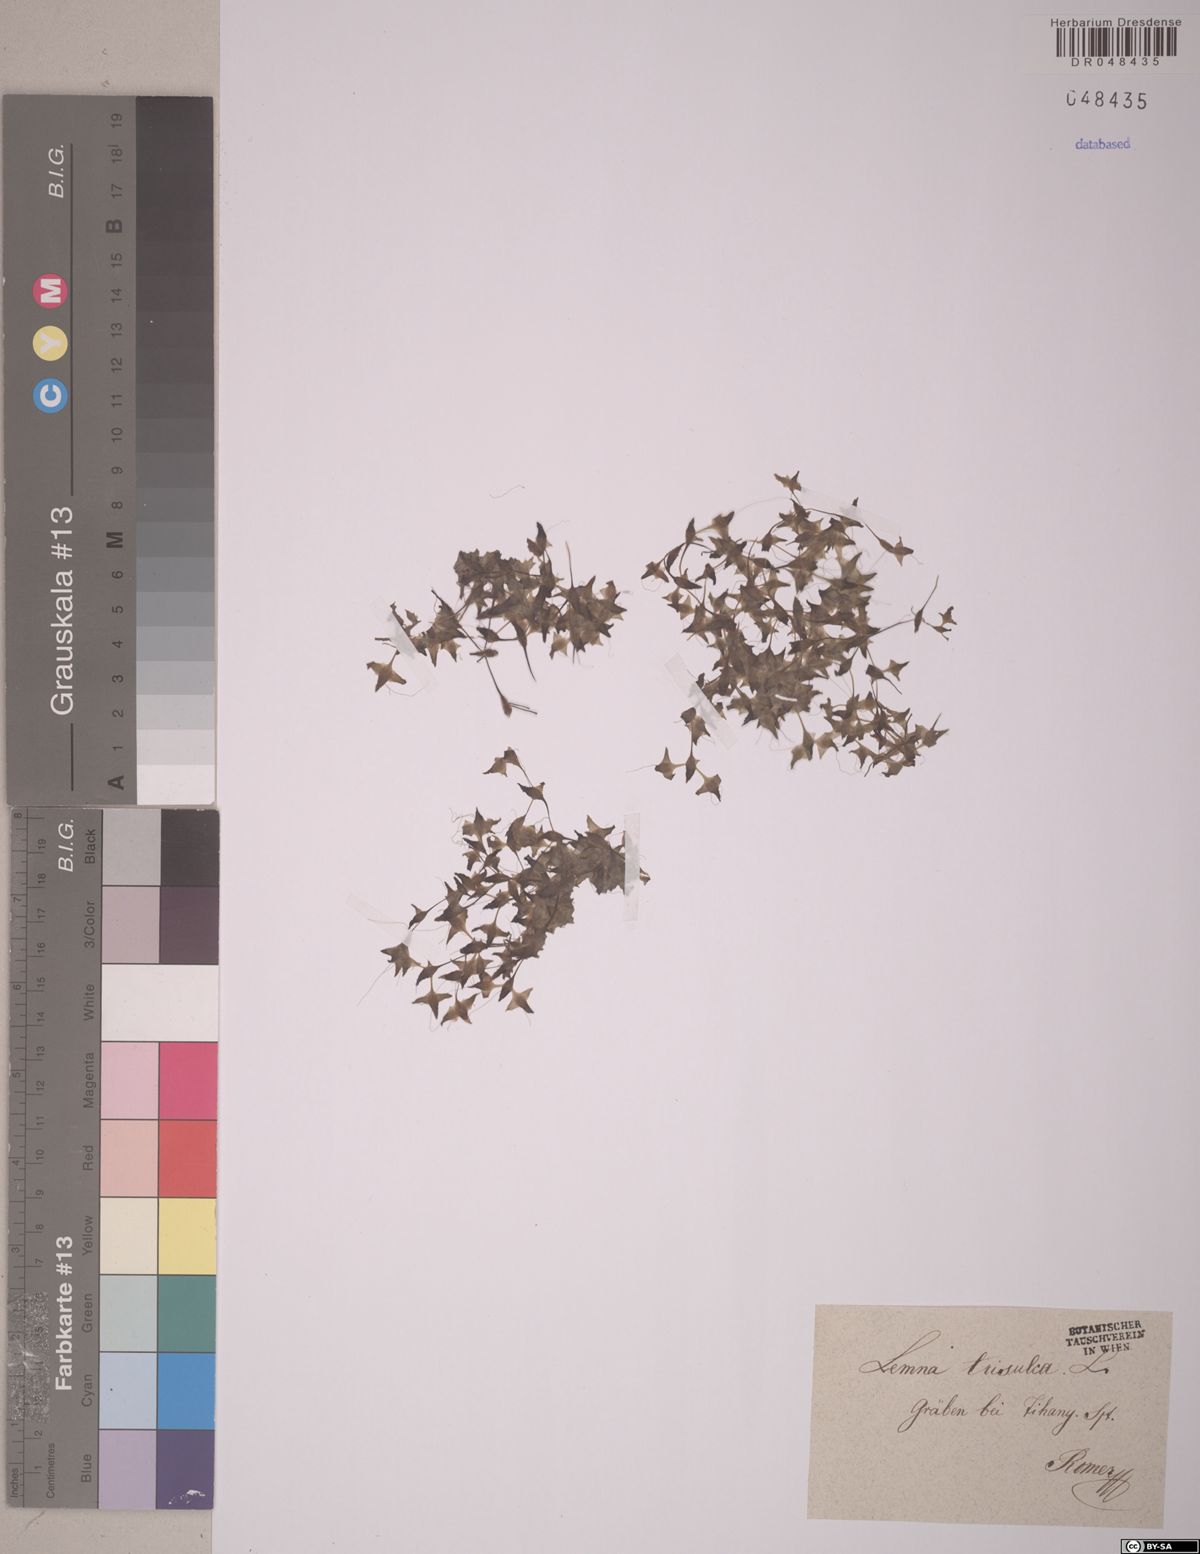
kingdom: Plantae
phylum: Tracheophyta
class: Liliopsida
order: Alismatales
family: Araceae
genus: Lemna
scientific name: Lemna trisulca
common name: Ivy-leaved duckweed
